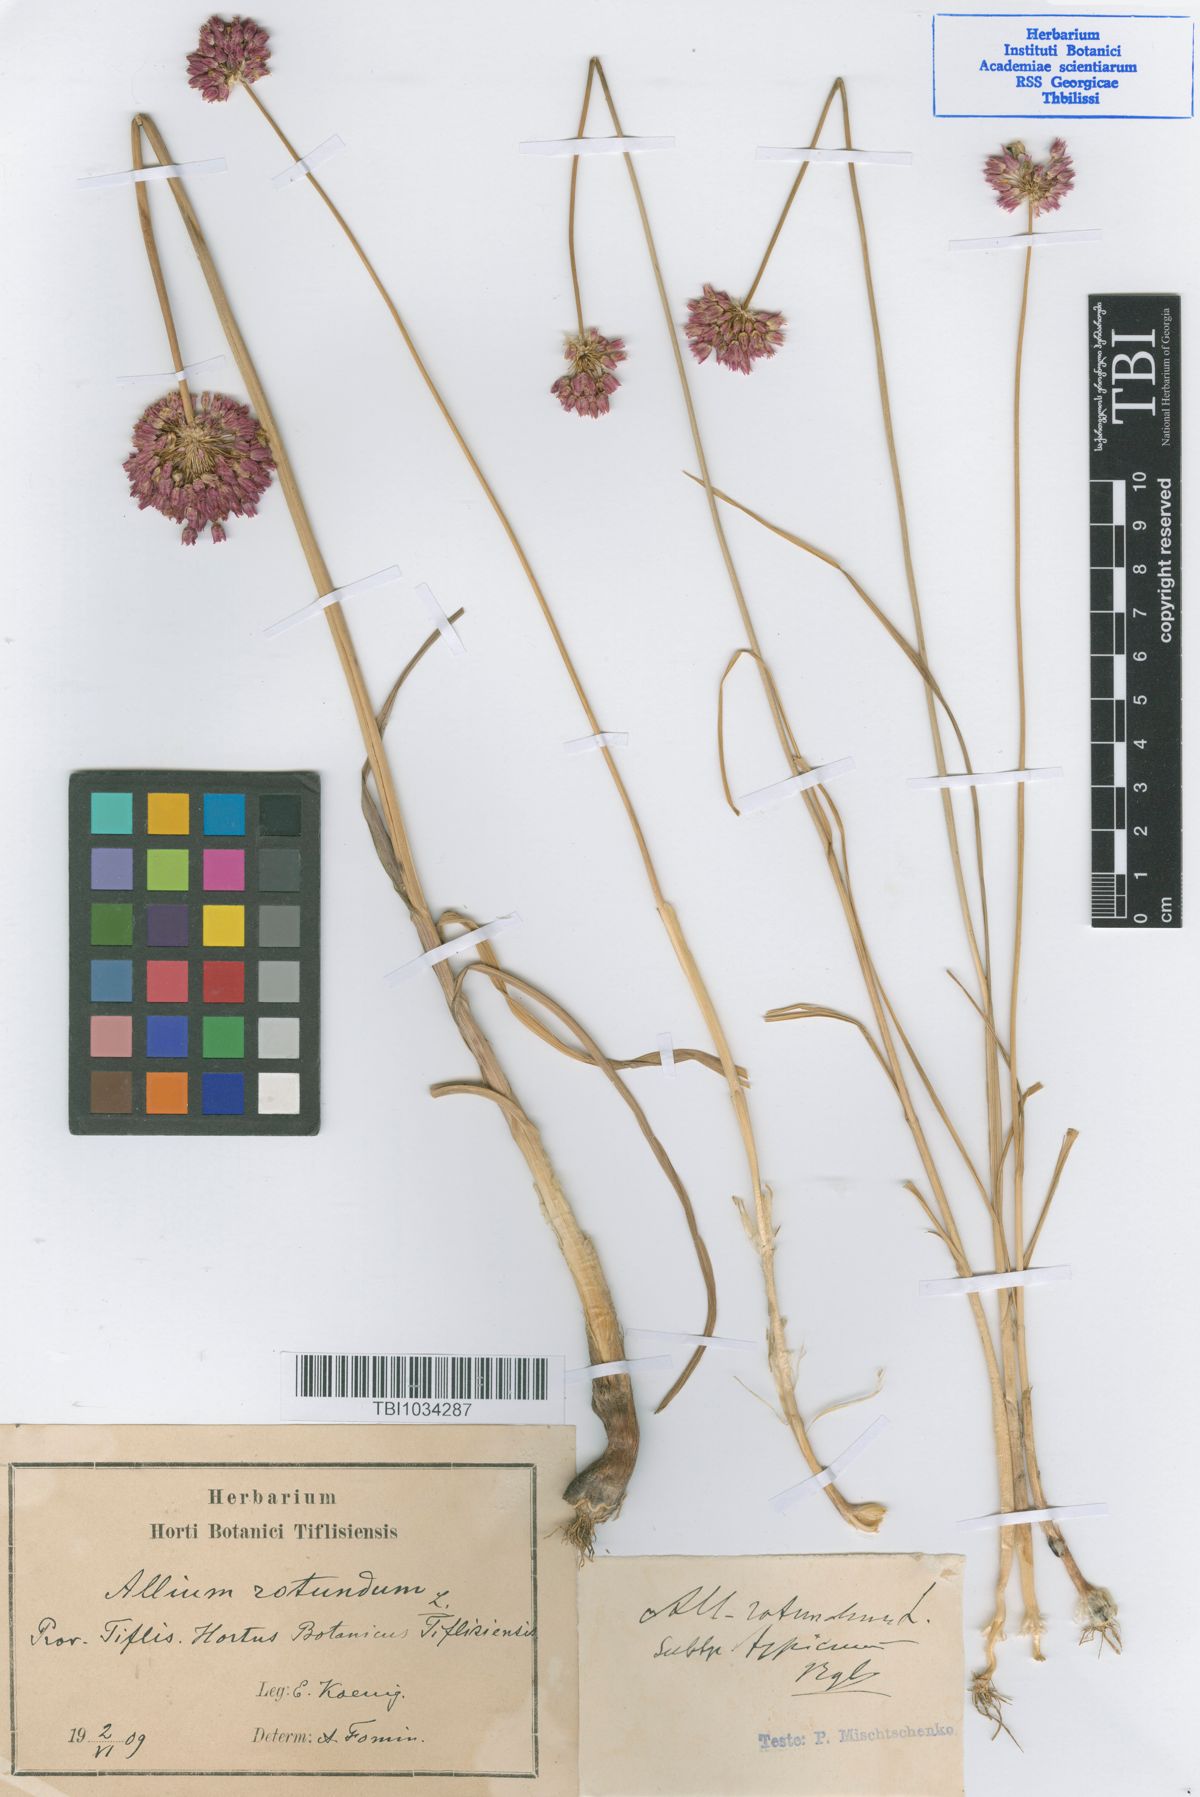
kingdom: Plantae
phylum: Tracheophyta
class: Liliopsida
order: Asparagales
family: Amaryllidaceae
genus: Allium
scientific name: Allium rotundum
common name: Sand leek
